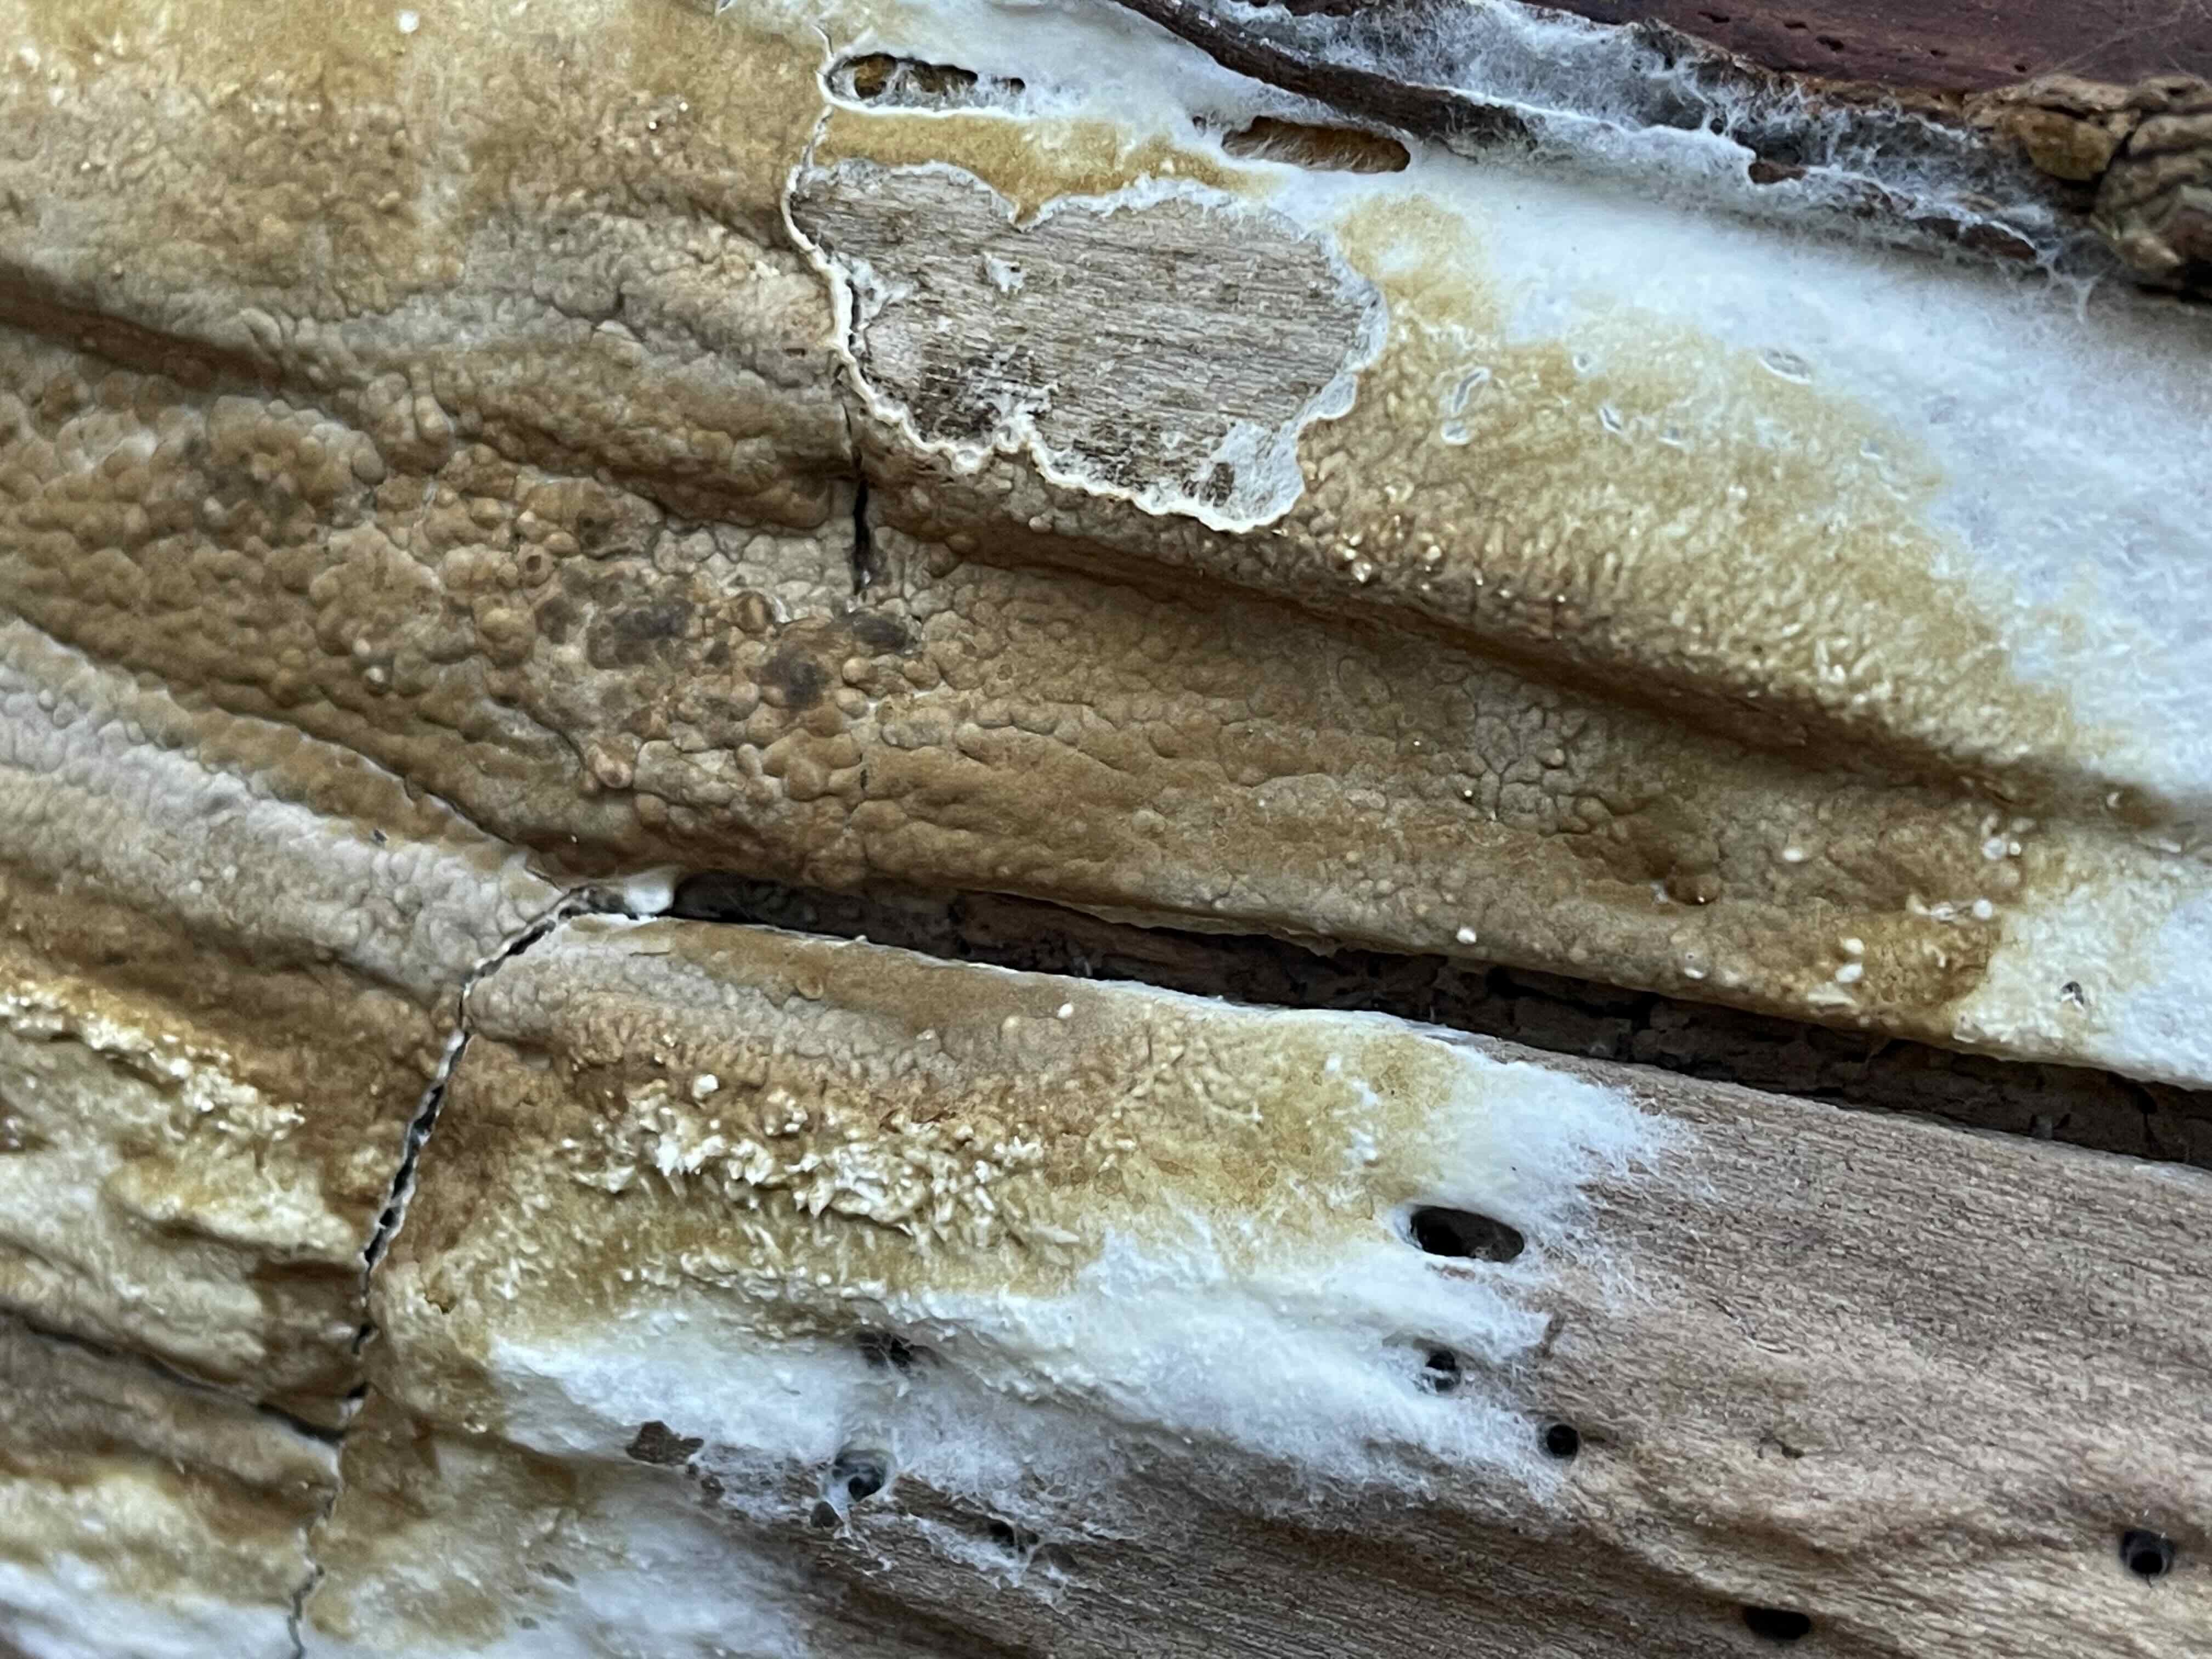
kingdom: Fungi
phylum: Basidiomycota
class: Agaricomycetes
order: Boletales
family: Coniophoraceae
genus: Coniophora
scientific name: Coniophora puteana
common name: gul tømmersvamp
